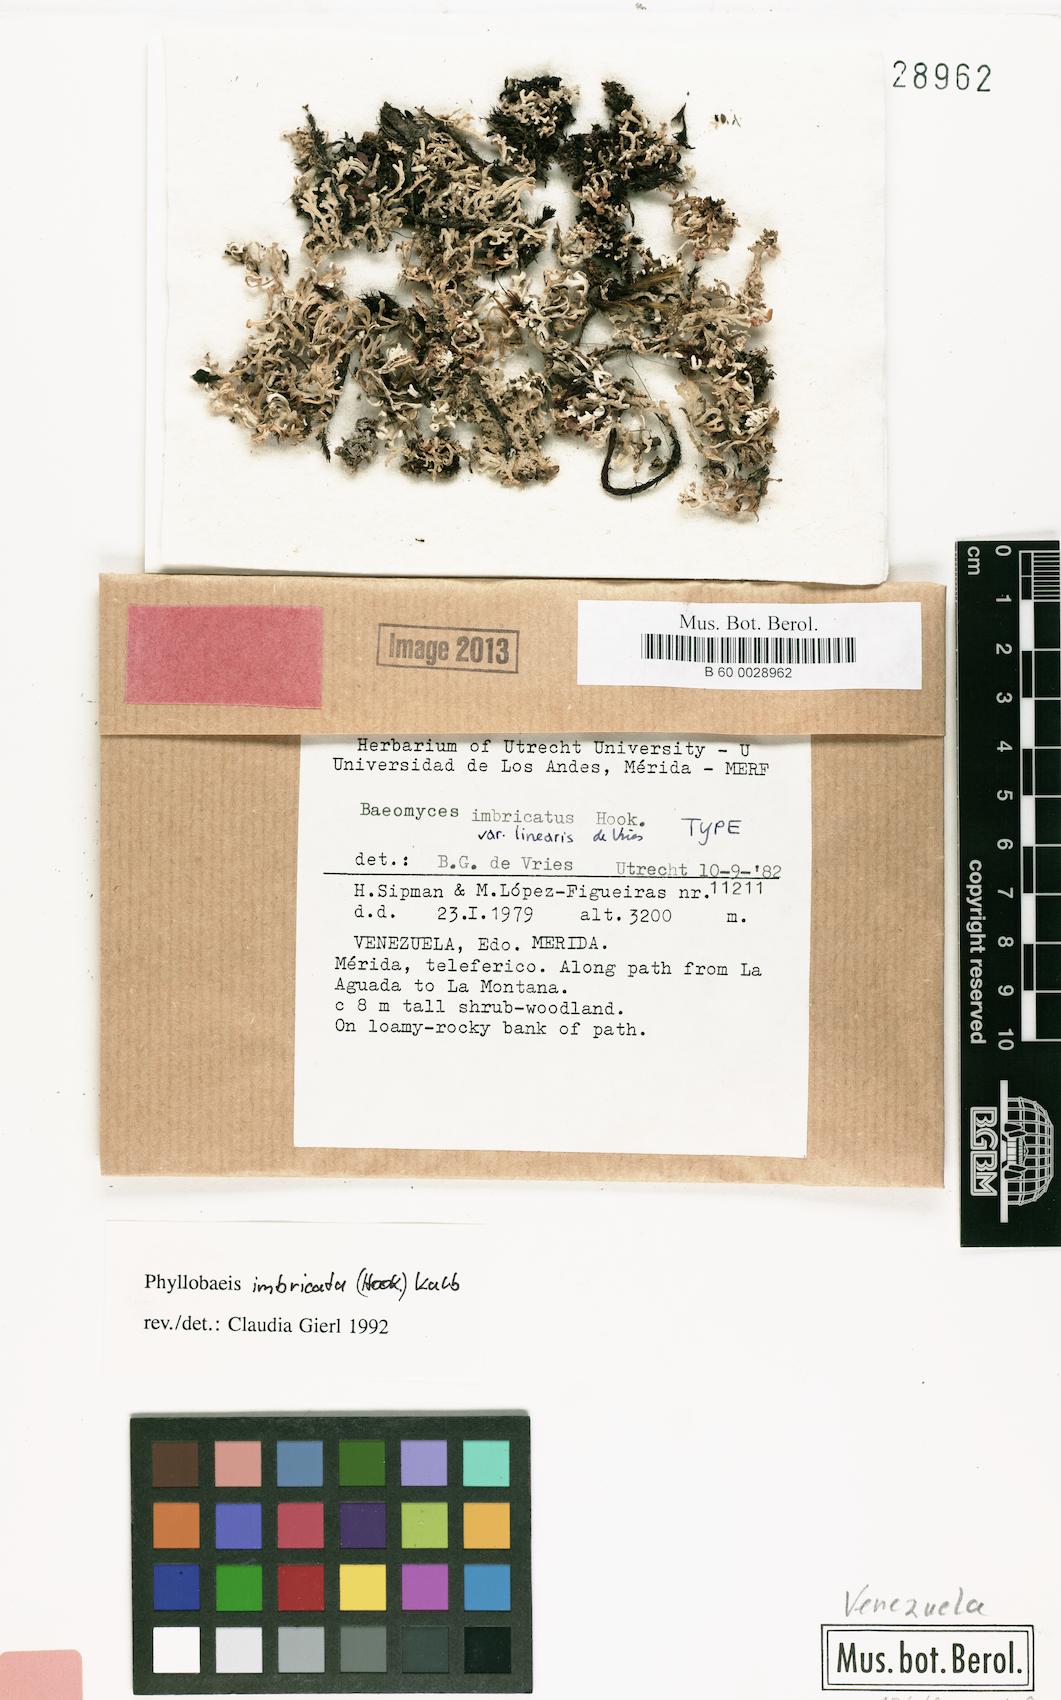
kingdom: Fungi
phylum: Ascomycota
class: Lecanoromycetes
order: Baeomycetales
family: Baeomycetaceae
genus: Phyllobaeis
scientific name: Phyllobaeis linearis
